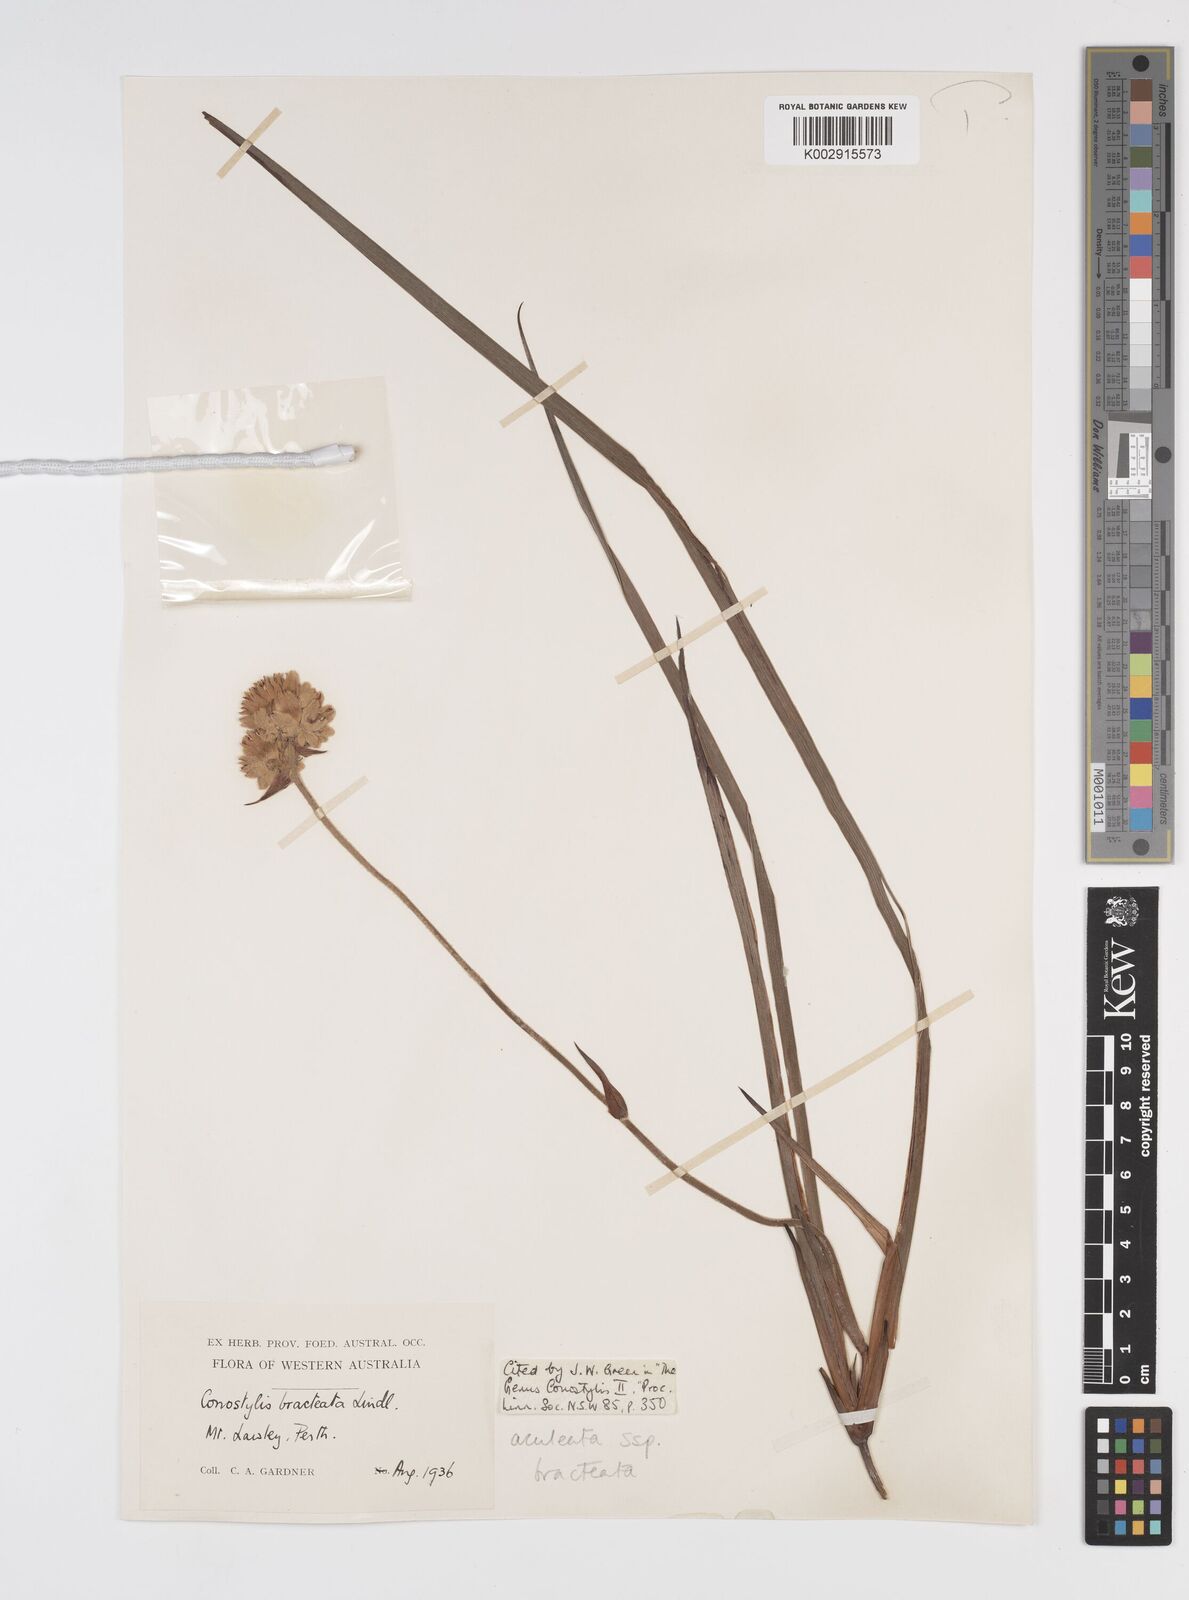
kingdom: Plantae
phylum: Tracheophyta
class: Liliopsida
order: Commelinales
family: Haemodoraceae
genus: Conostylis
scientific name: Conostylis bracteata
